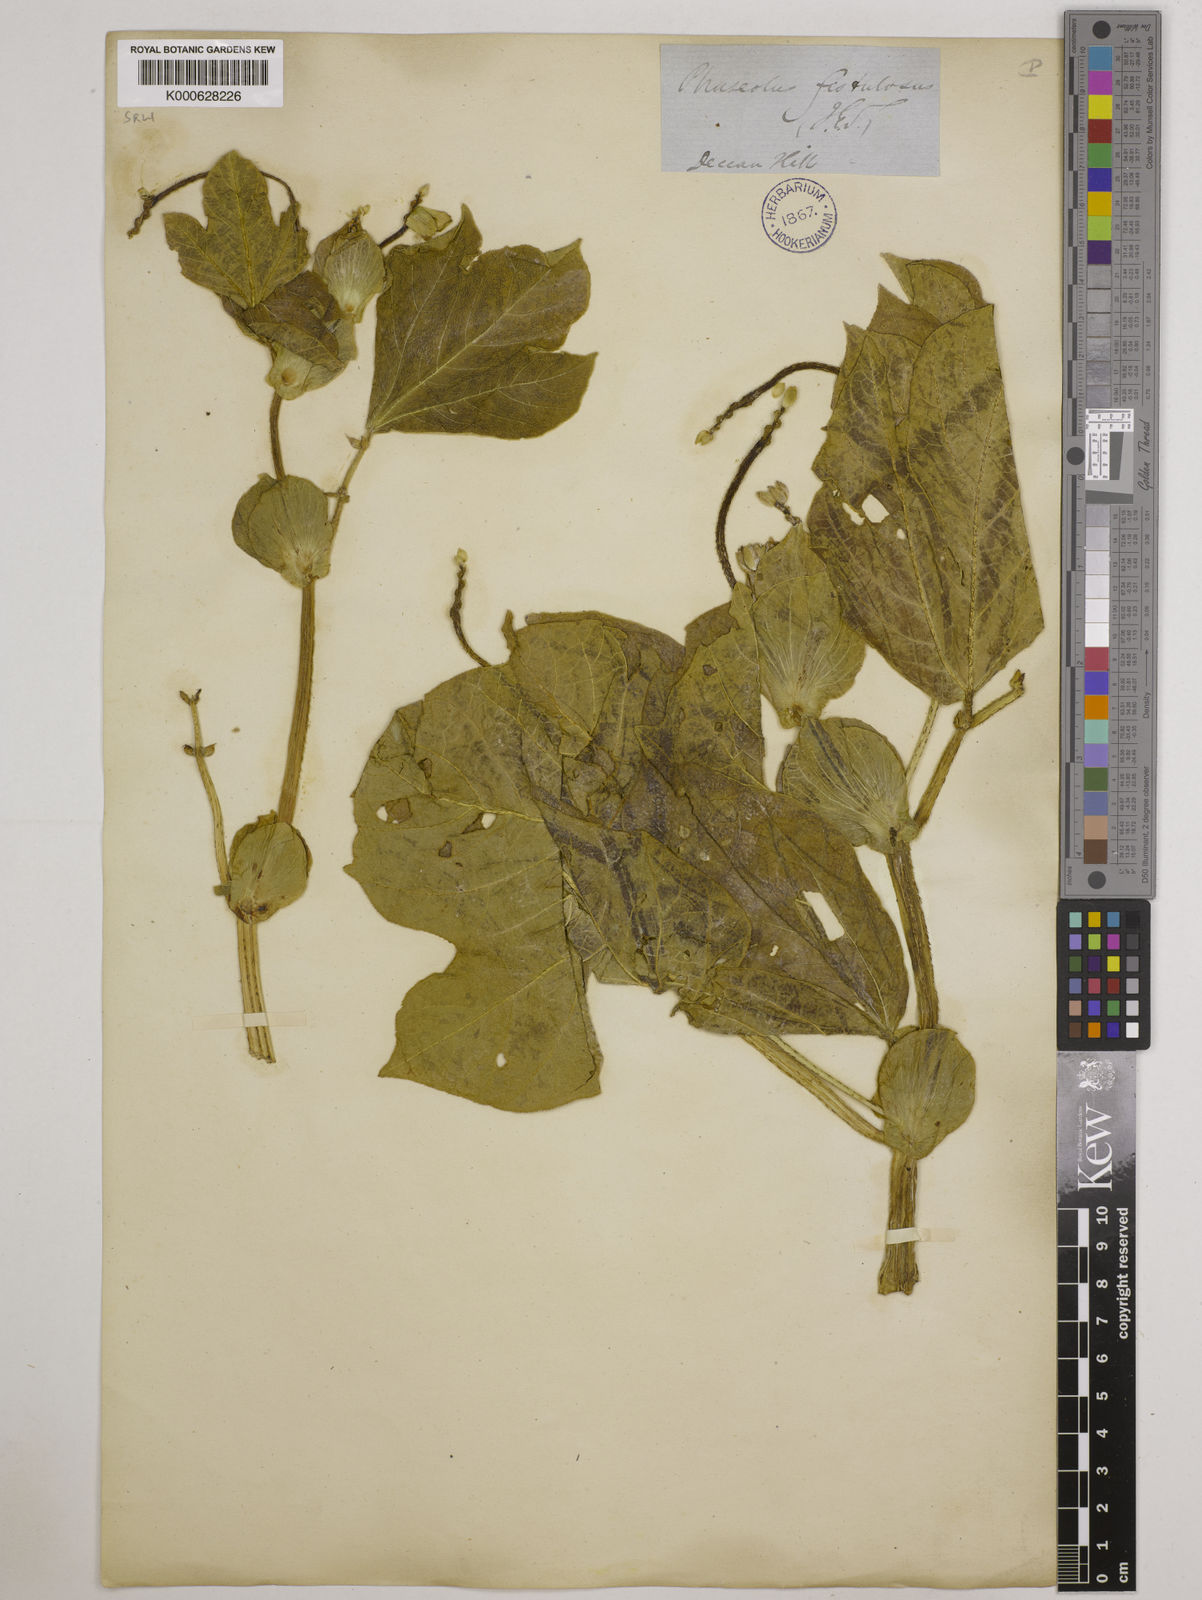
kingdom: Plantae
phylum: Tracheophyta
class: Magnoliopsida
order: Fabales
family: Fabaceae
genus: Vigna
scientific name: Vigna khandalensis
